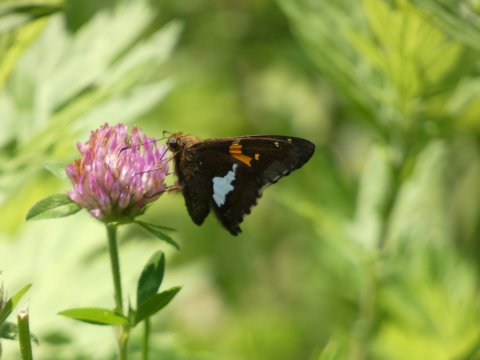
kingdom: Animalia
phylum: Arthropoda
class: Insecta
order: Lepidoptera
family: Hesperiidae
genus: Epargyreus
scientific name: Epargyreus clarus
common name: Silver-spotted Skipper
